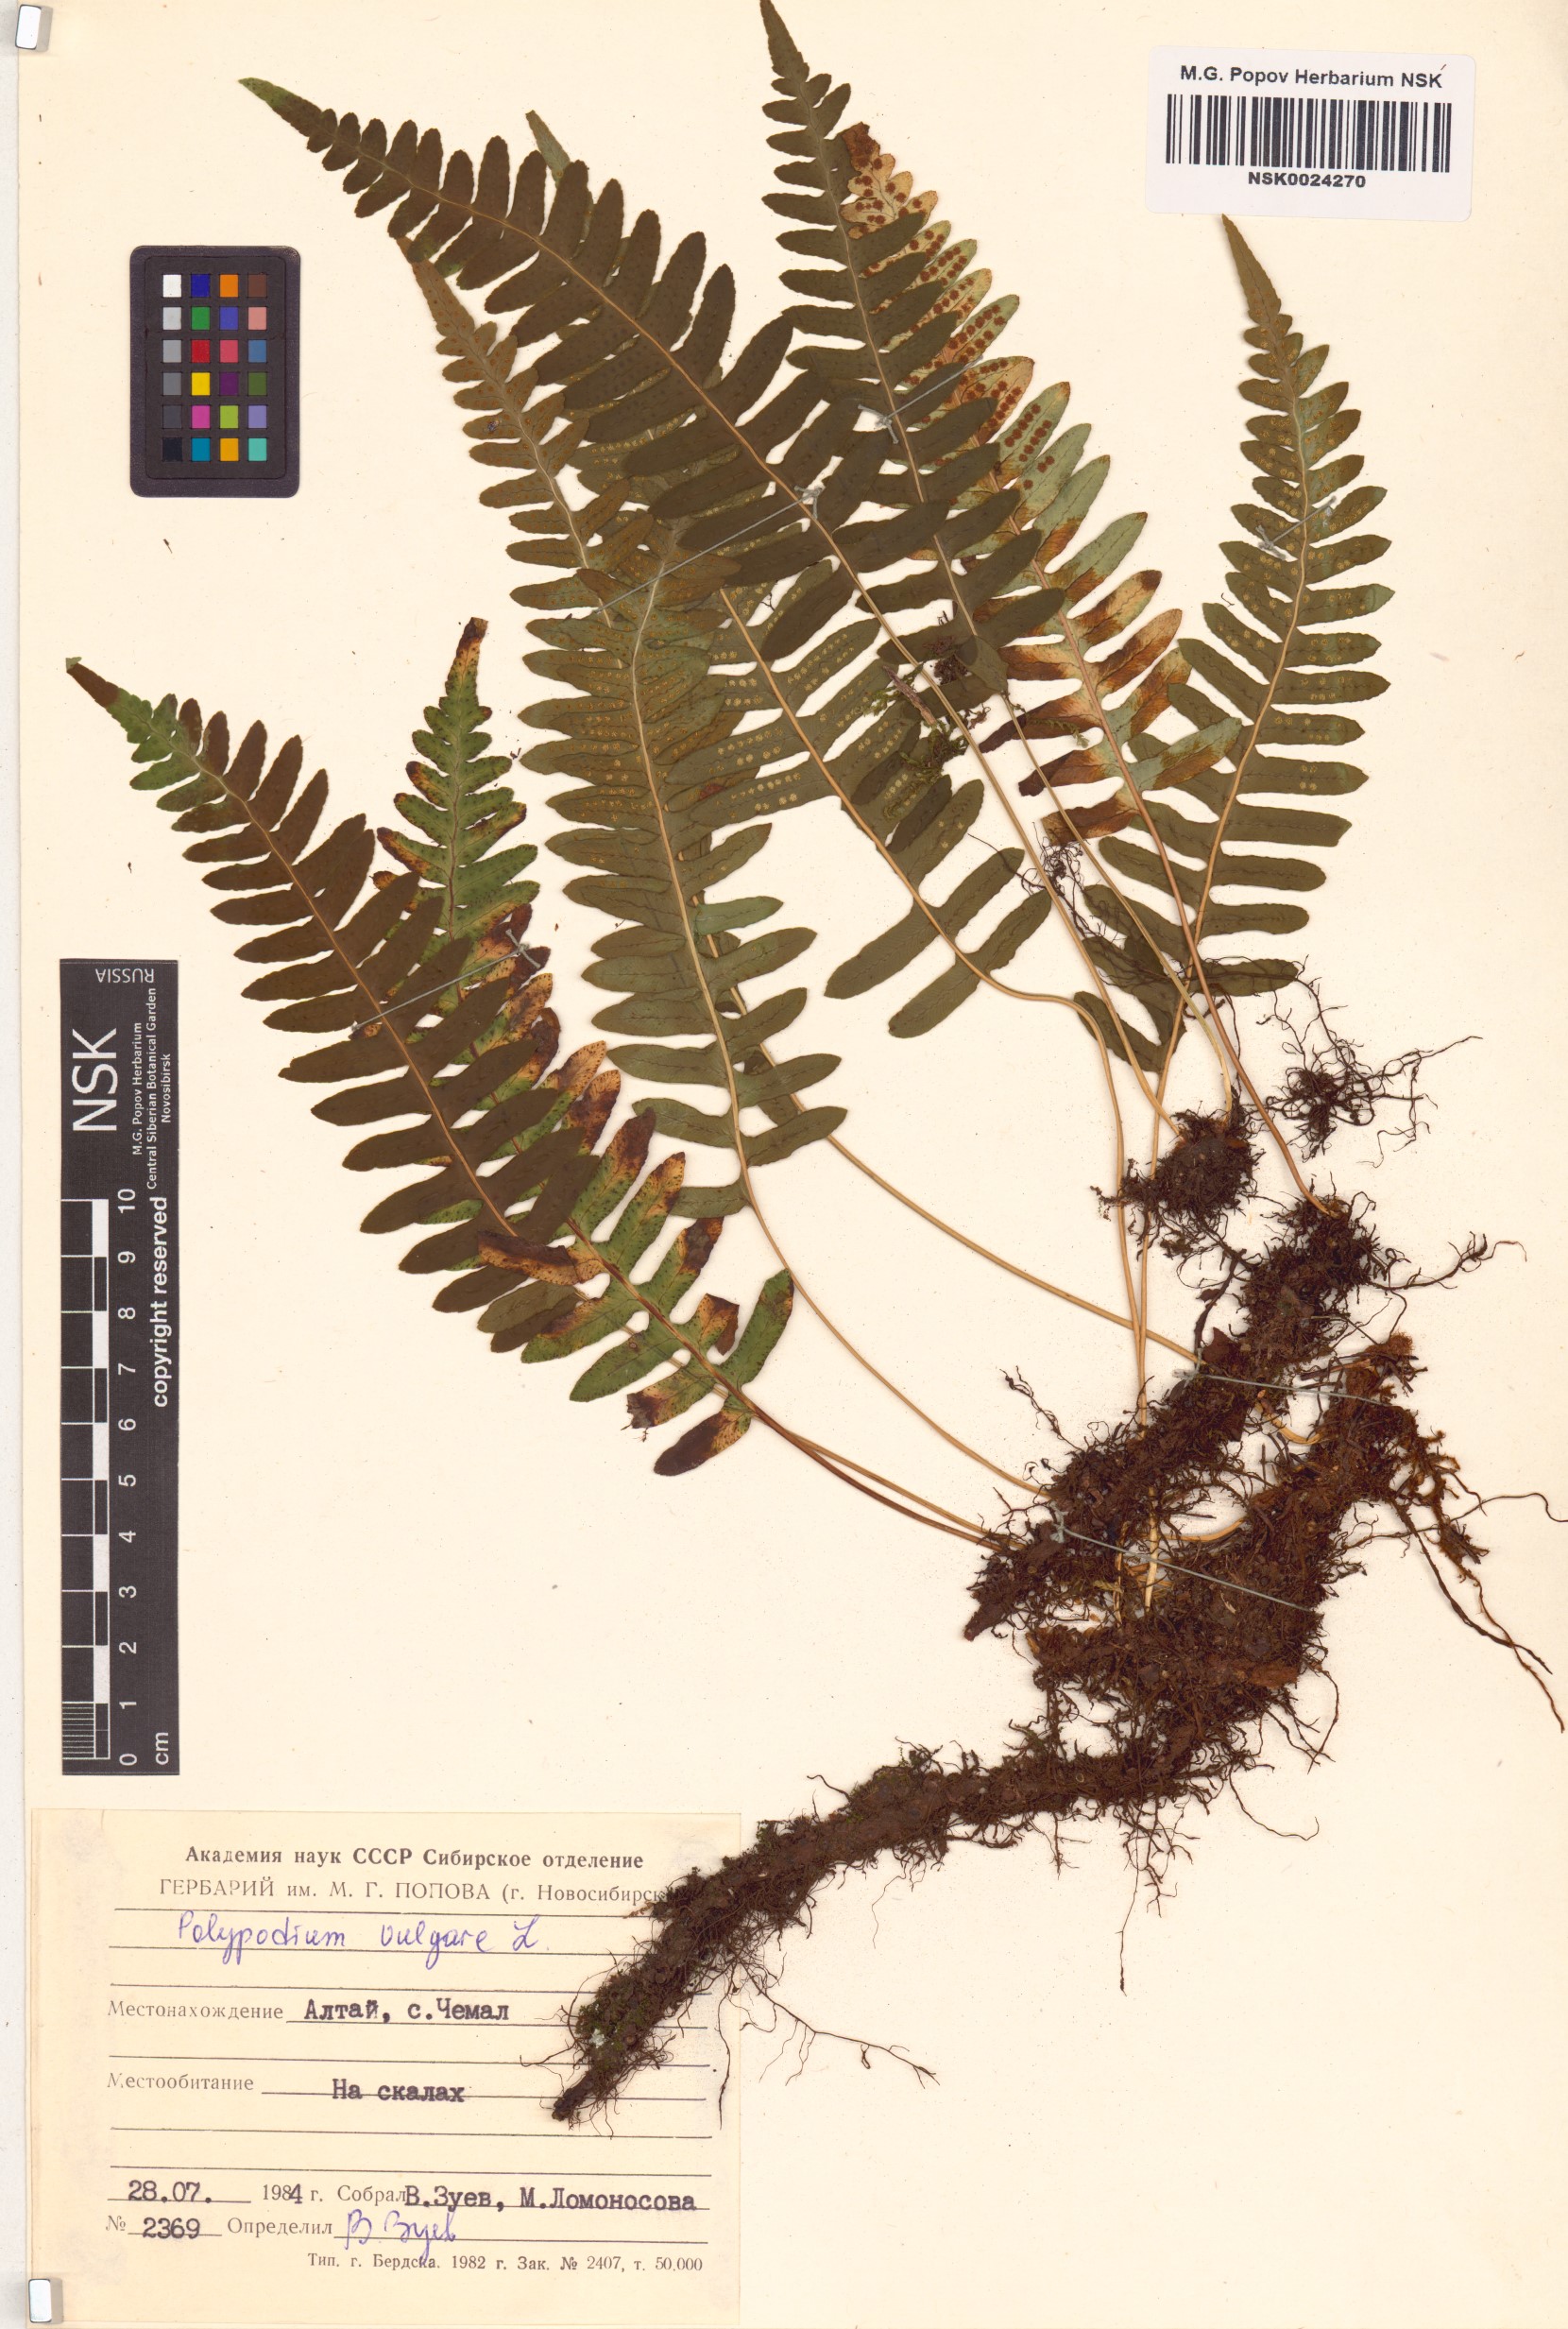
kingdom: Plantae
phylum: Tracheophyta
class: Polypodiopsida
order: Polypodiales
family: Polypodiaceae
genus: Polypodium
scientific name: Polypodium vulgare
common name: Common polypody
